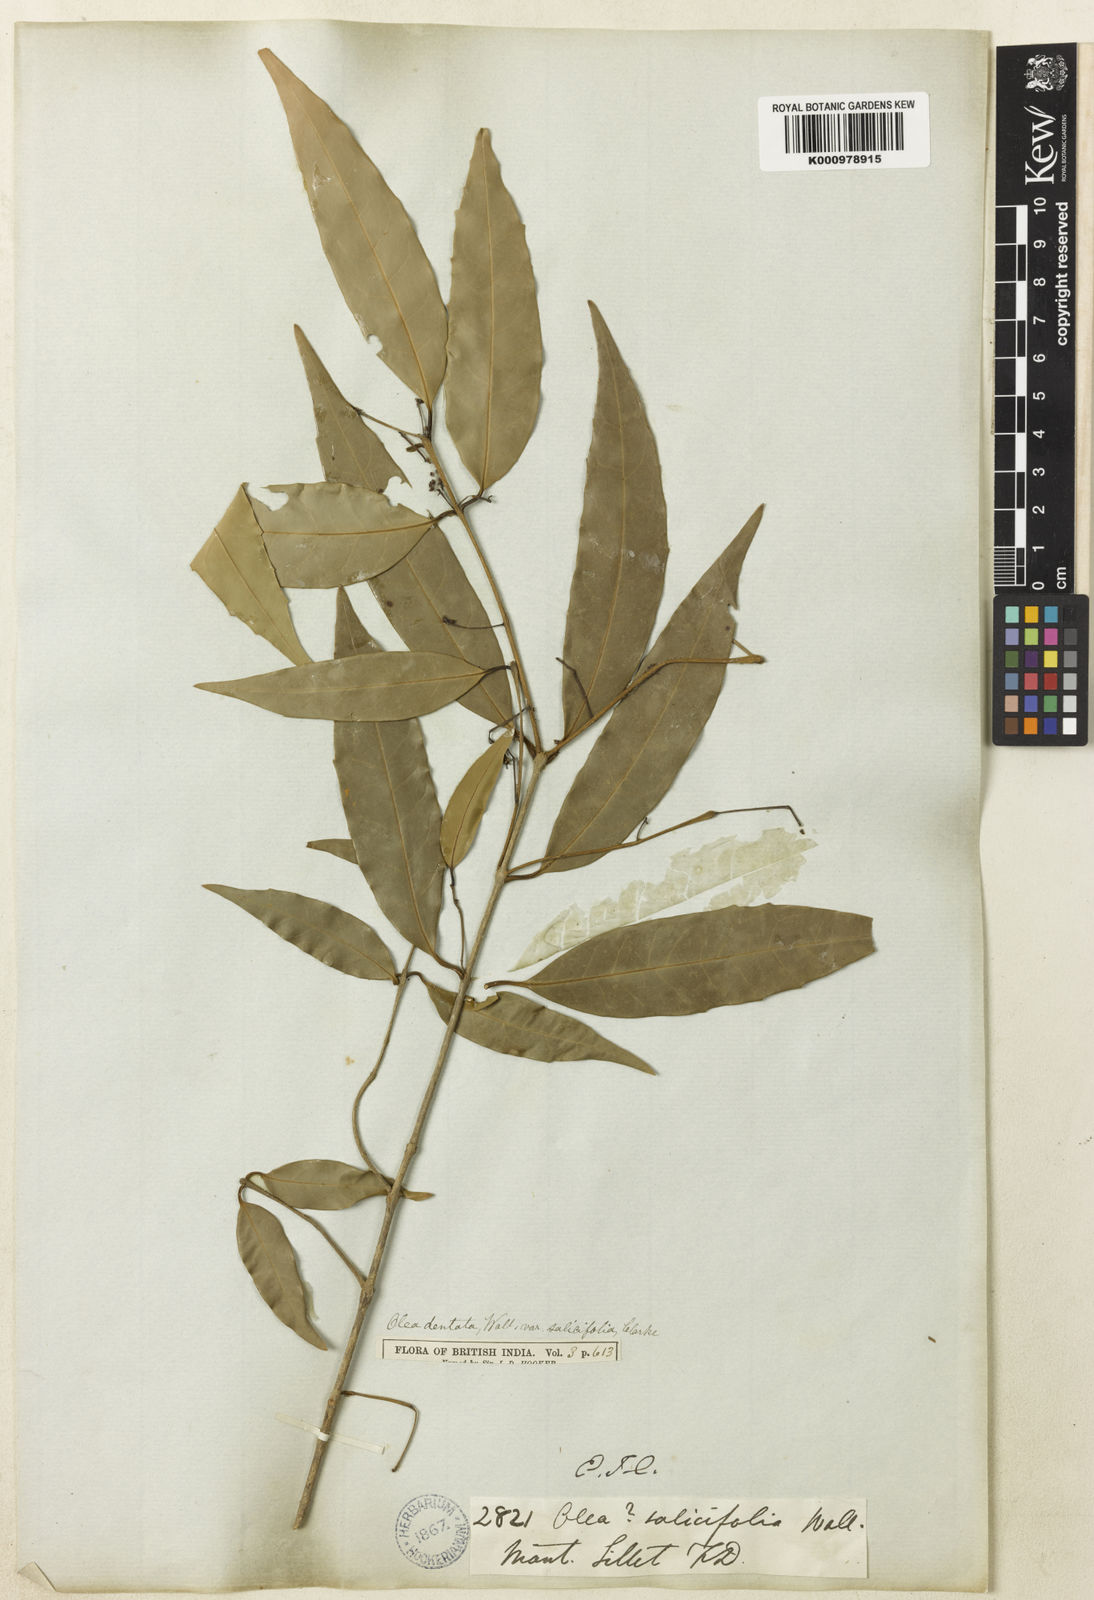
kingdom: Plantae
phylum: Tracheophyta
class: Magnoliopsida
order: Lamiales
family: Oleaceae
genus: Olea
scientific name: Olea
